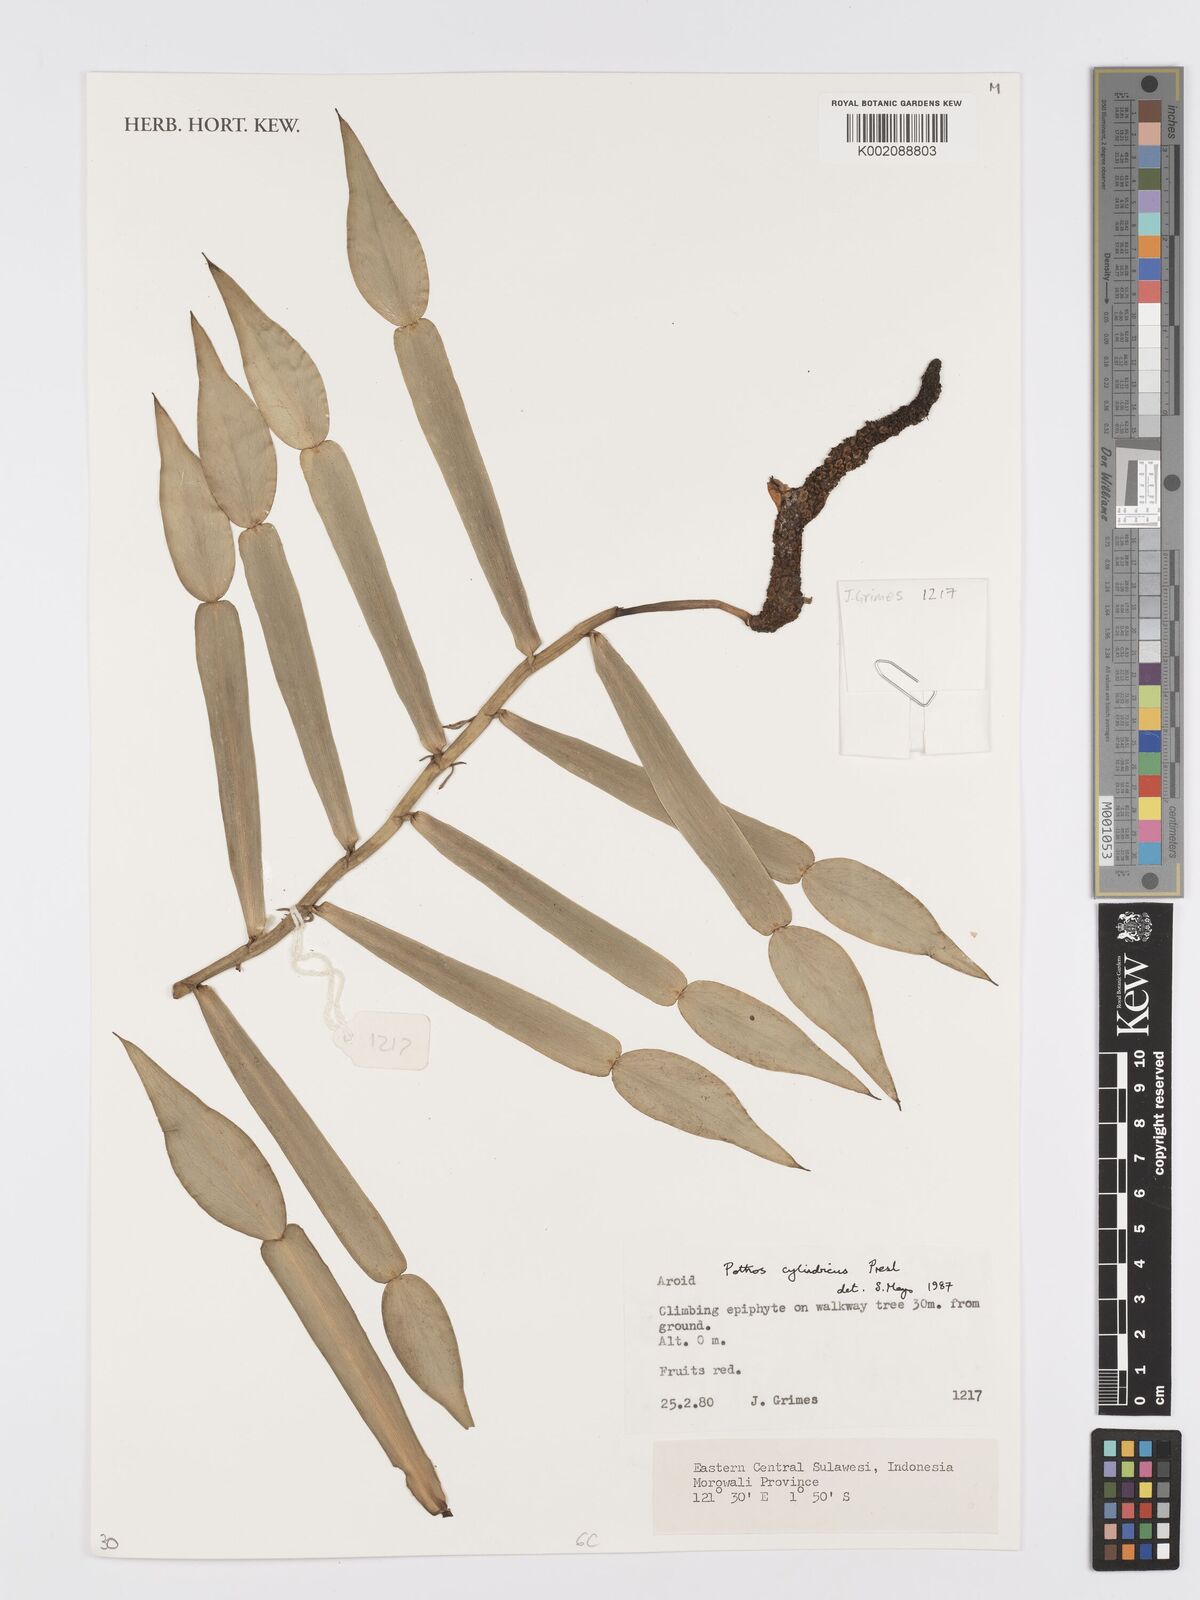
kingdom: Plantae
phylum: Tracheophyta
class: Liliopsida
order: Alismatales
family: Araceae
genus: Pothos
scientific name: Pothos cylindricus
